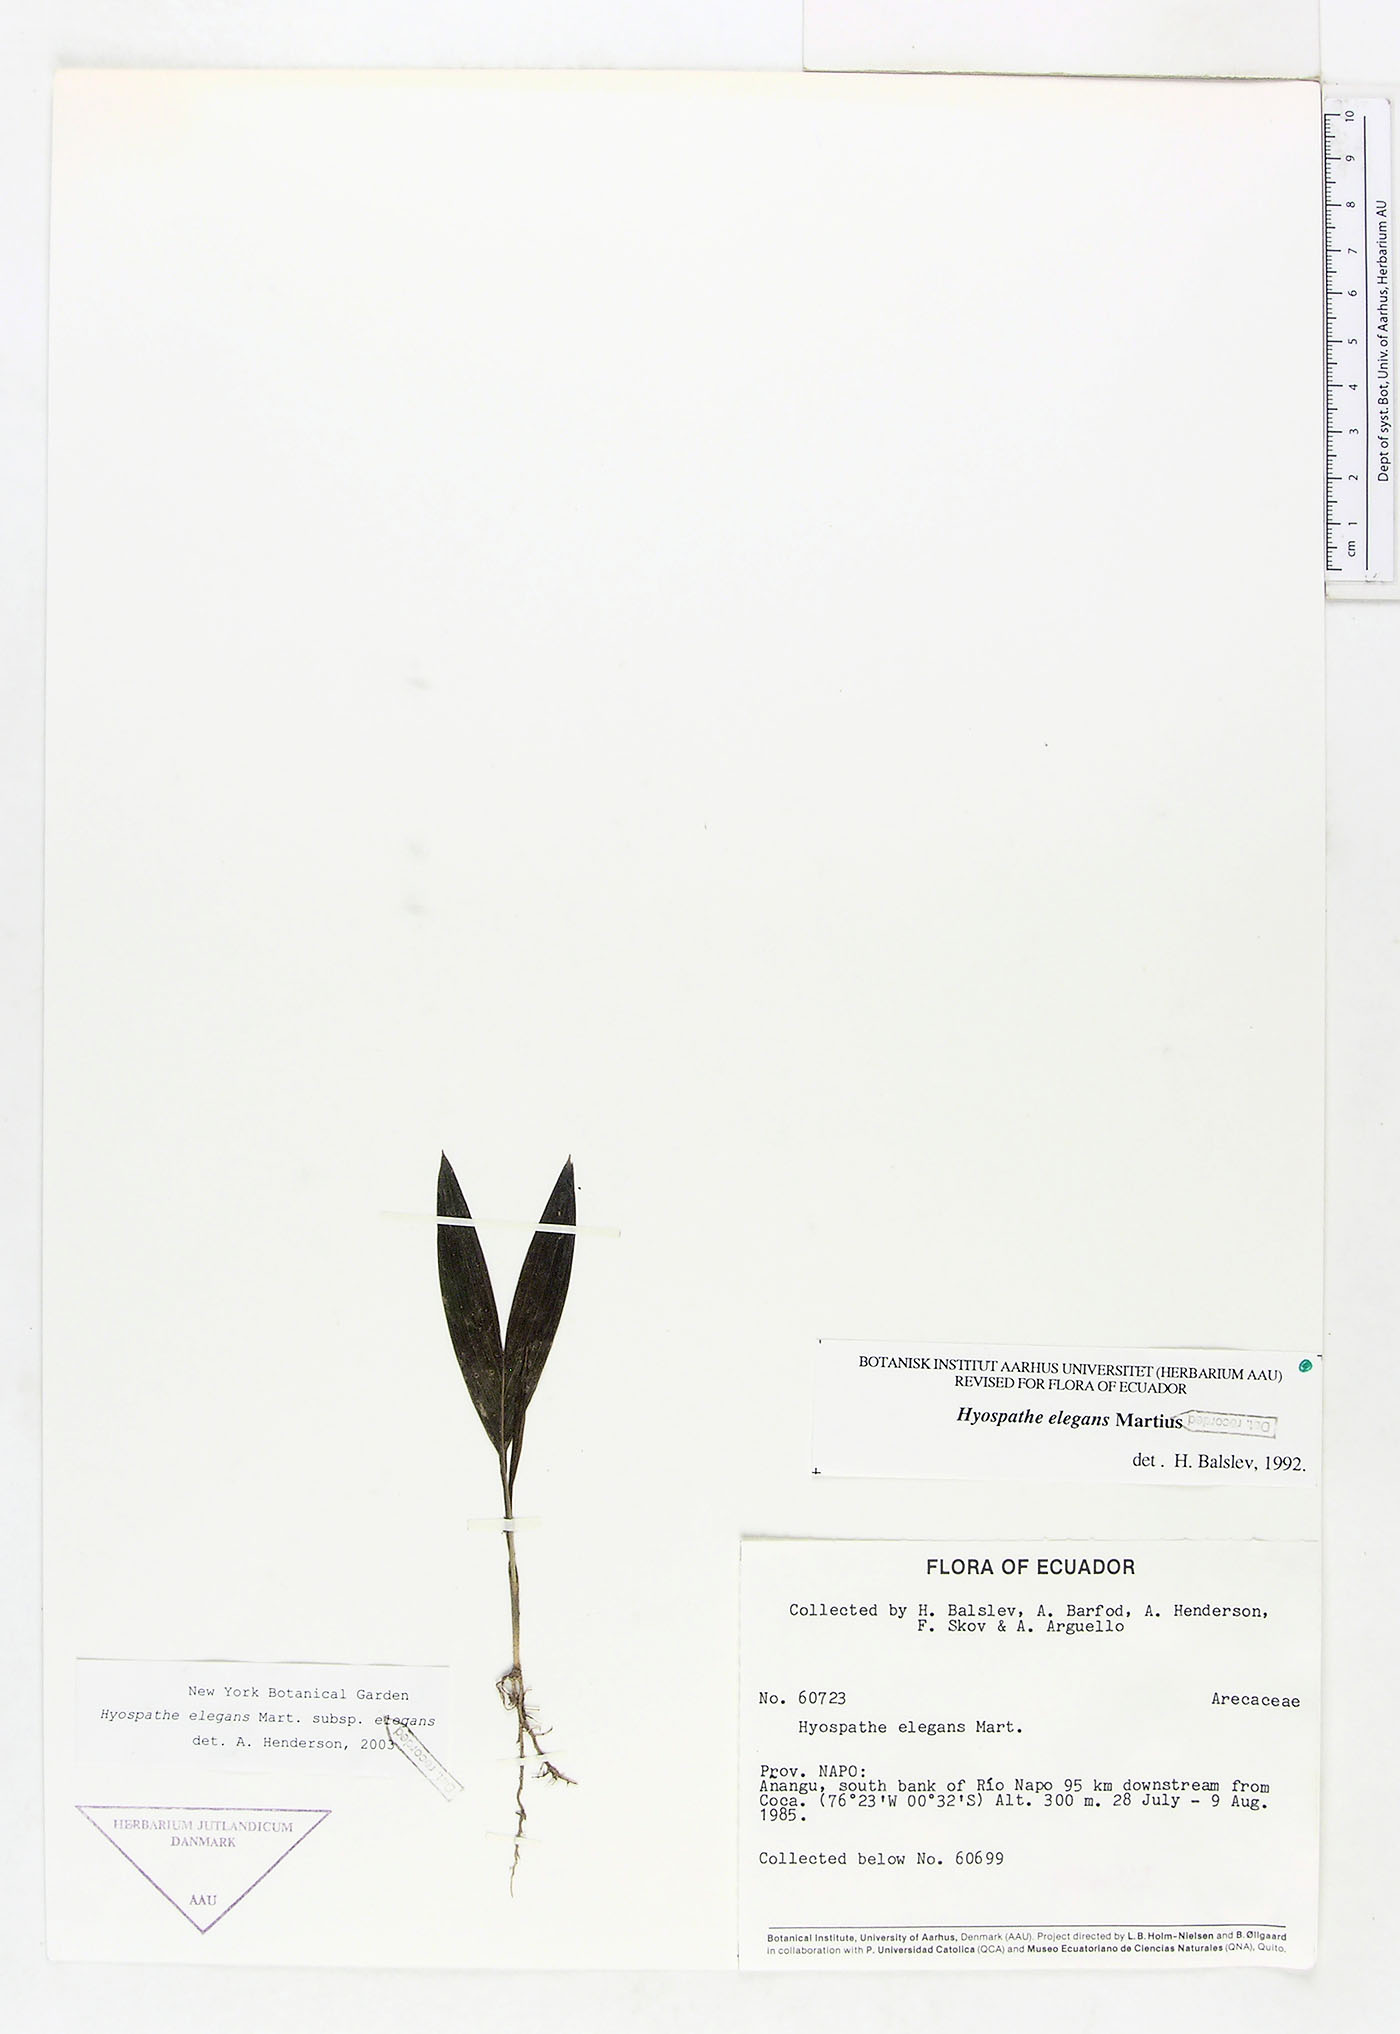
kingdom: Plantae
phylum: Tracheophyta
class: Liliopsida
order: Arecales
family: Arecaceae
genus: Hyospathe
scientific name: Hyospathe elegans
